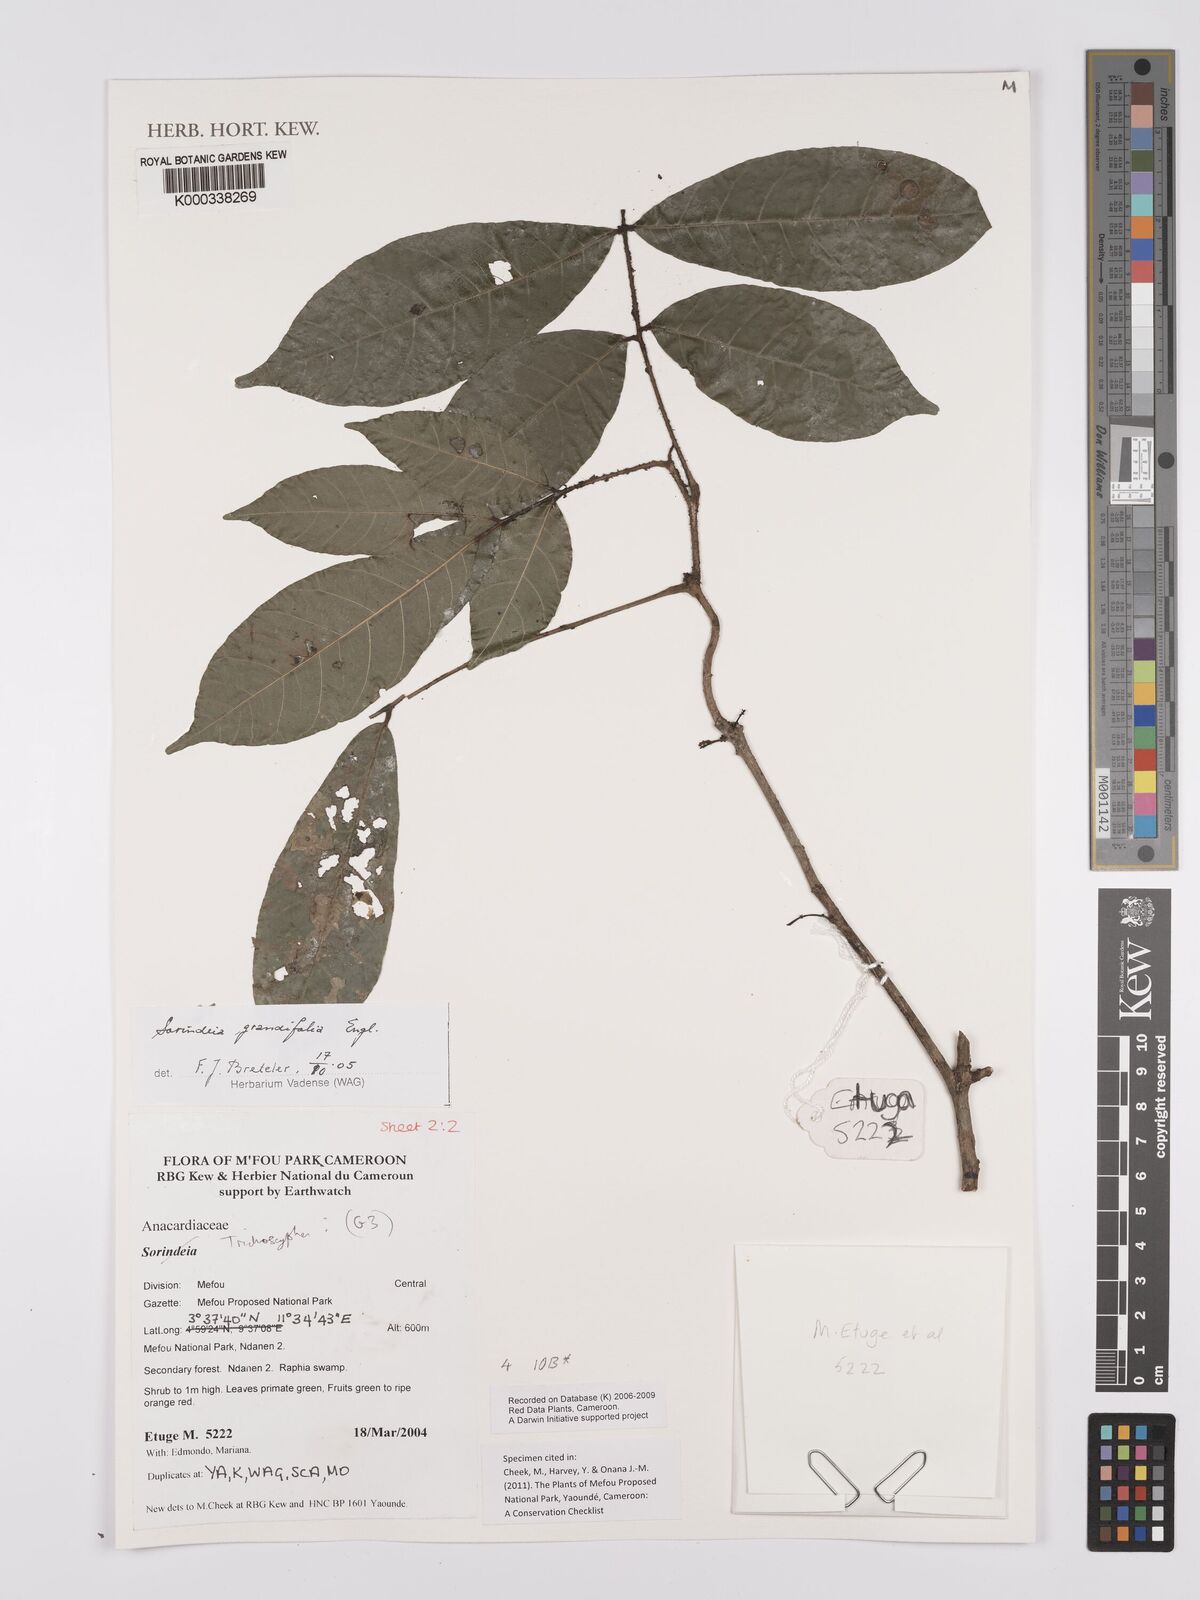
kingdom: Plantae
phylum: Tracheophyta
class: Magnoliopsida
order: Sapindales
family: Anacardiaceae
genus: Sorindeia
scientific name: Sorindeia grandifolia
